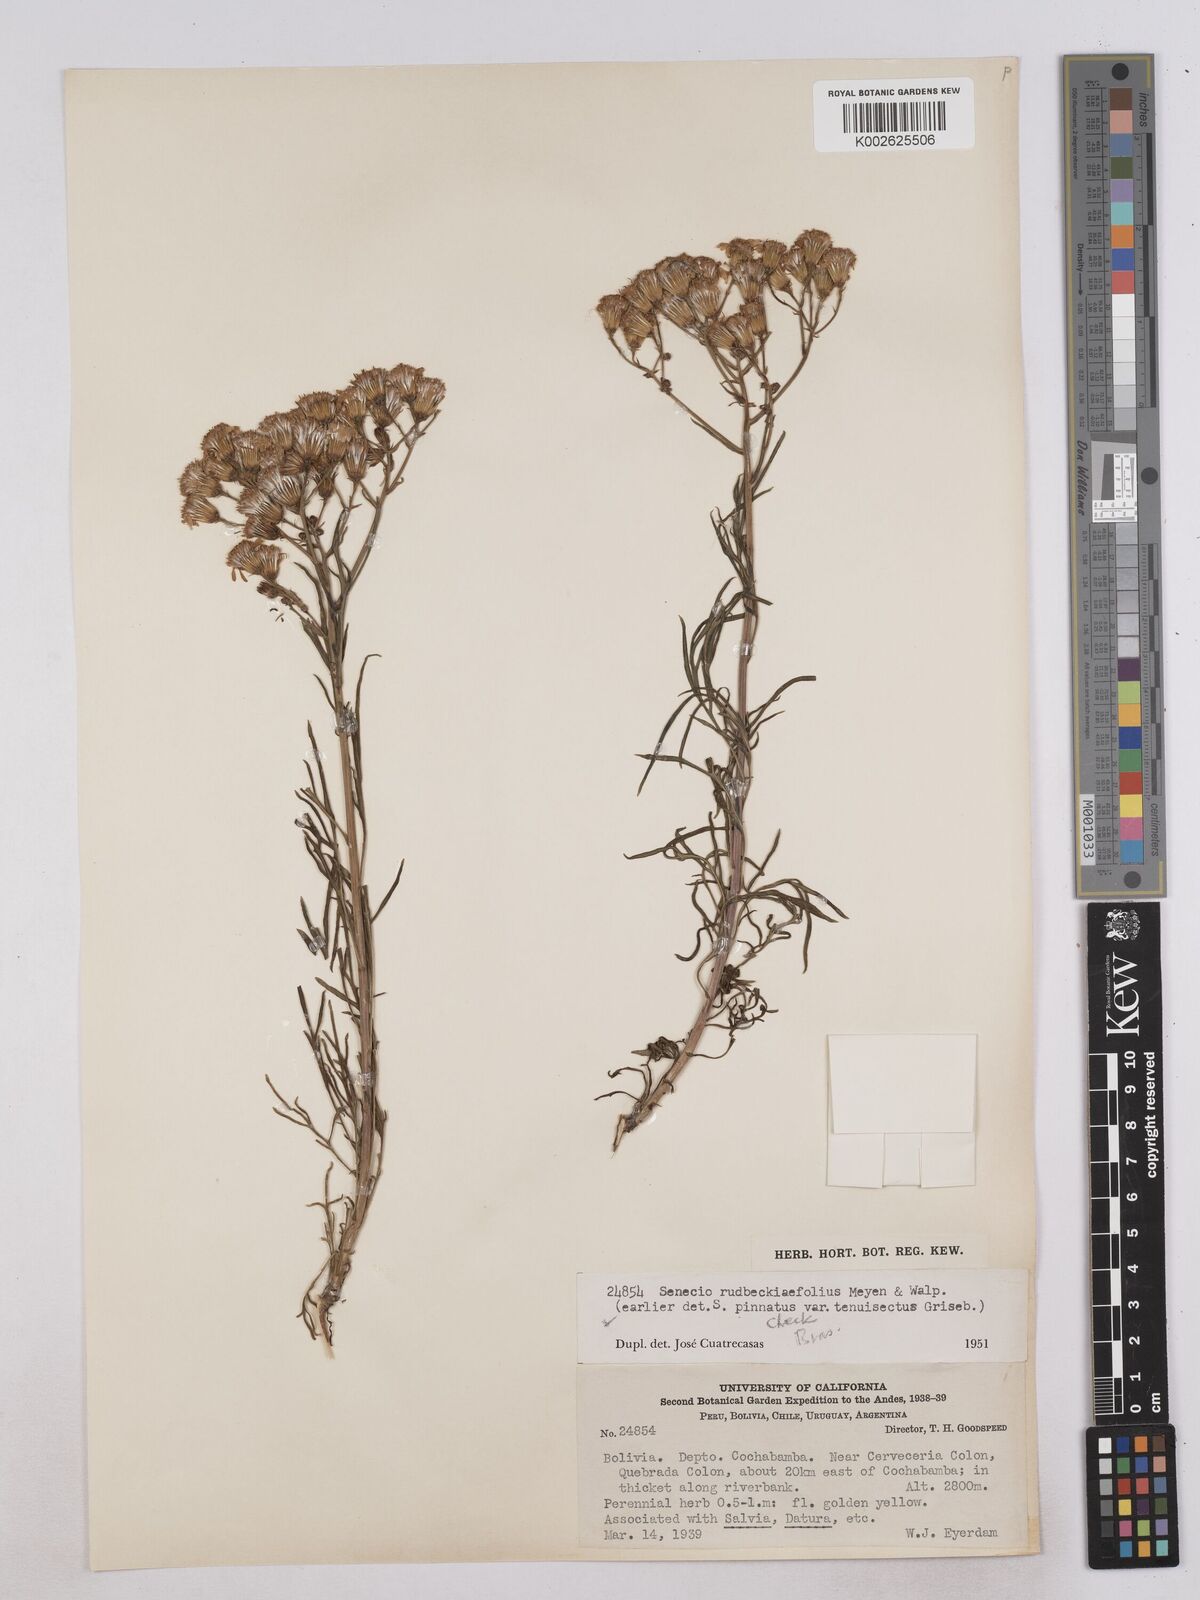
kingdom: Plantae
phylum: Tracheophyta
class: Magnoliopsida
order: Asterales
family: Asteraceae
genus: Senecio
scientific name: Senecio rudbeckiifolius
